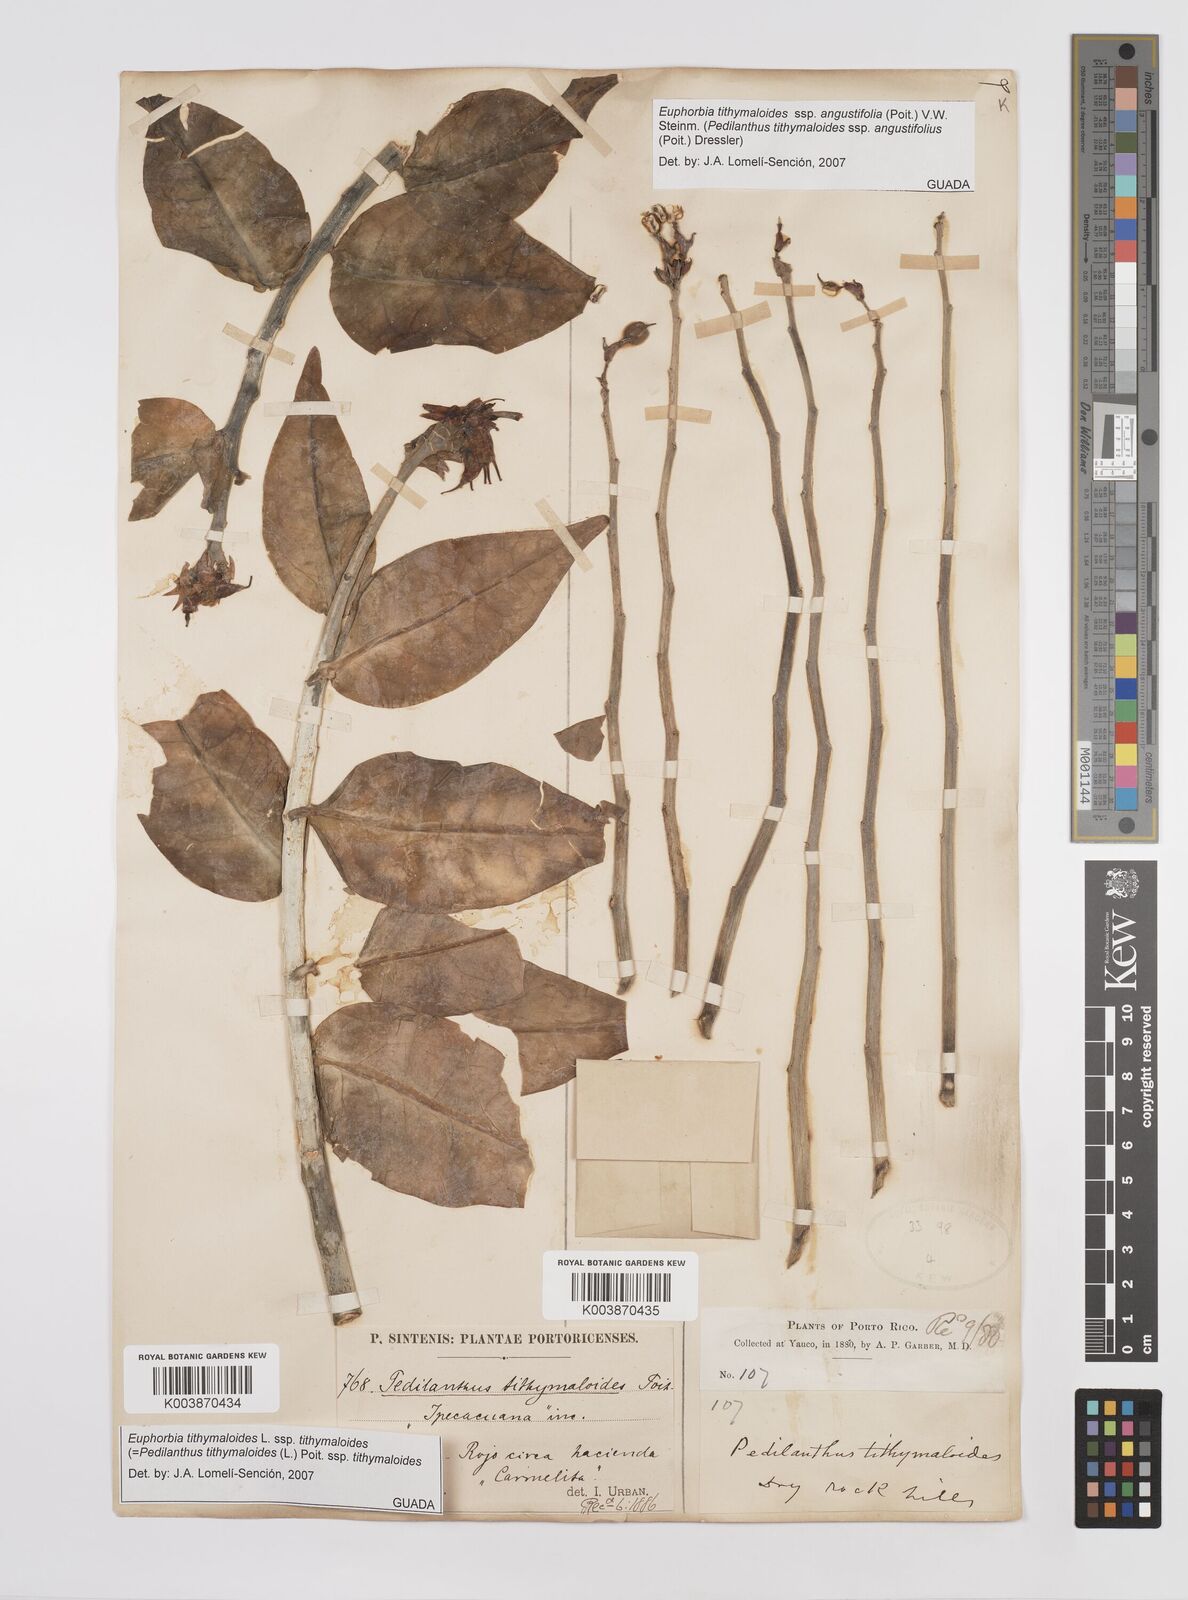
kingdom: Plantae
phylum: Tracheophyta
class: Magnoliopsida
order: Malpighiales
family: Euphorbiaceae
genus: Euphorbia
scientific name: Euphorbia tithymaloides
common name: Slipperplant
